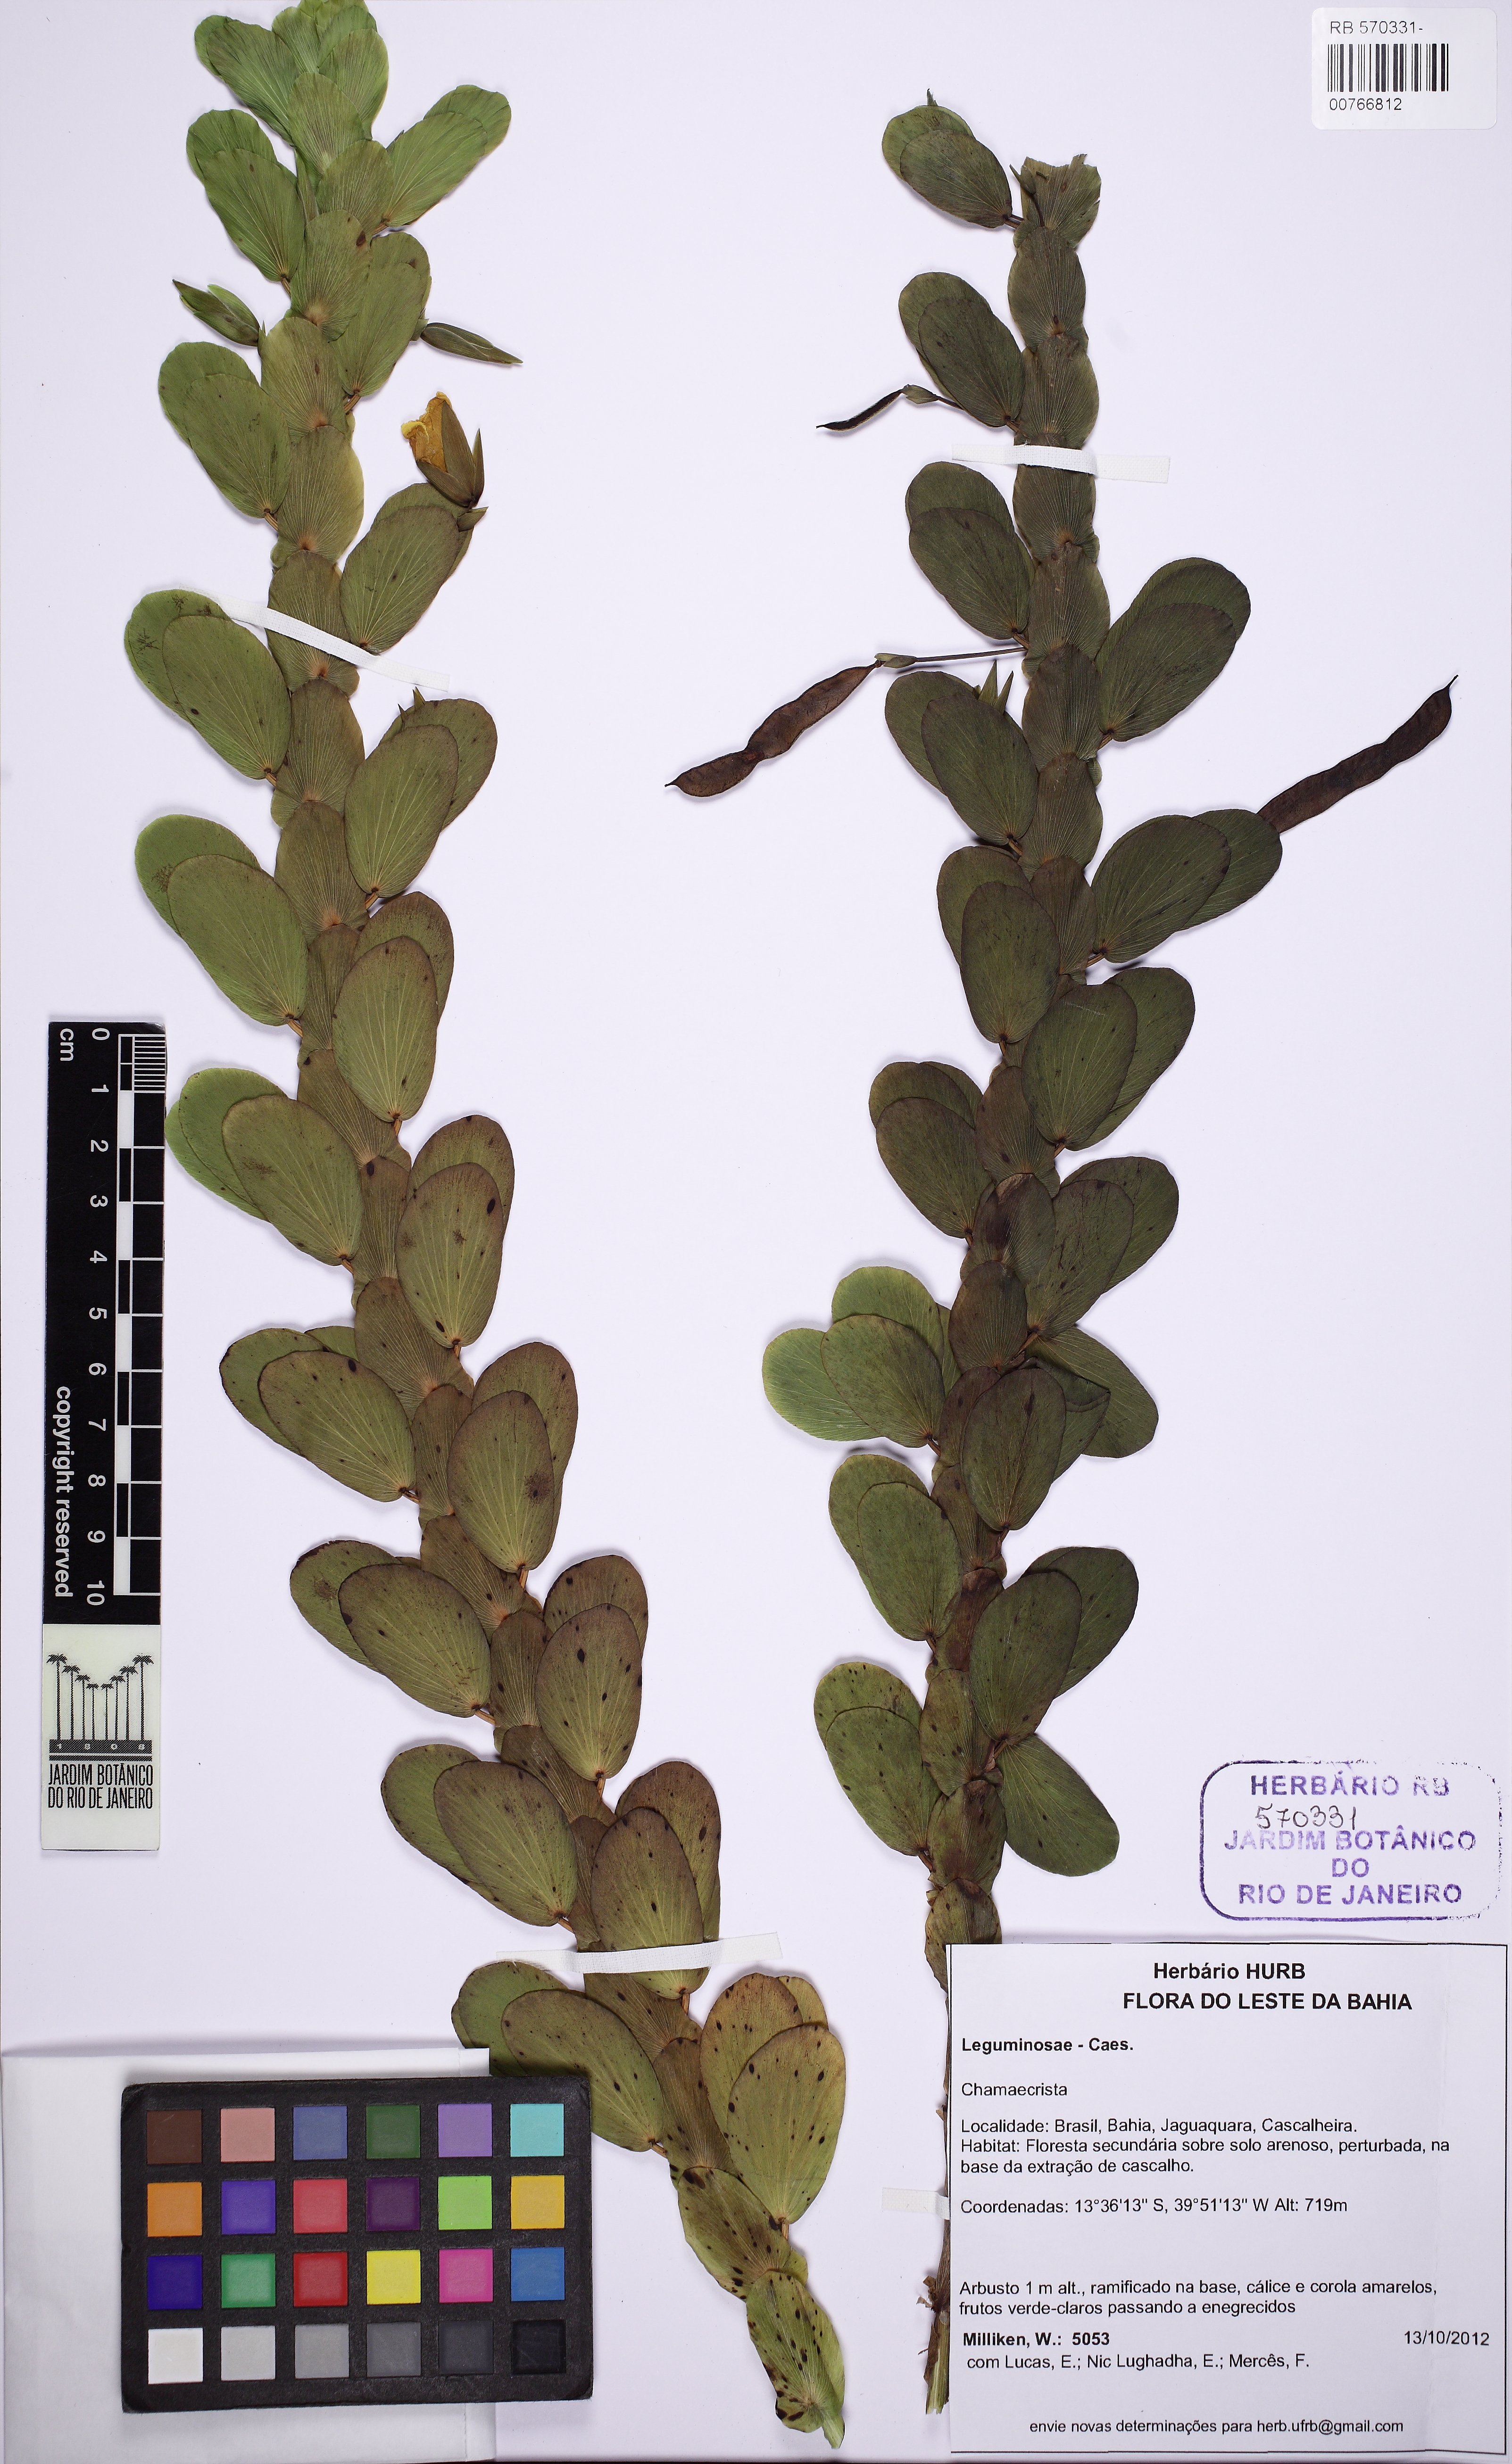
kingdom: Plantae
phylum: Tracheophyta
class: Magnoliopsida
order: Fabales
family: Fabaceae
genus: Chamaecrista
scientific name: Chamaecrista desvauxii
